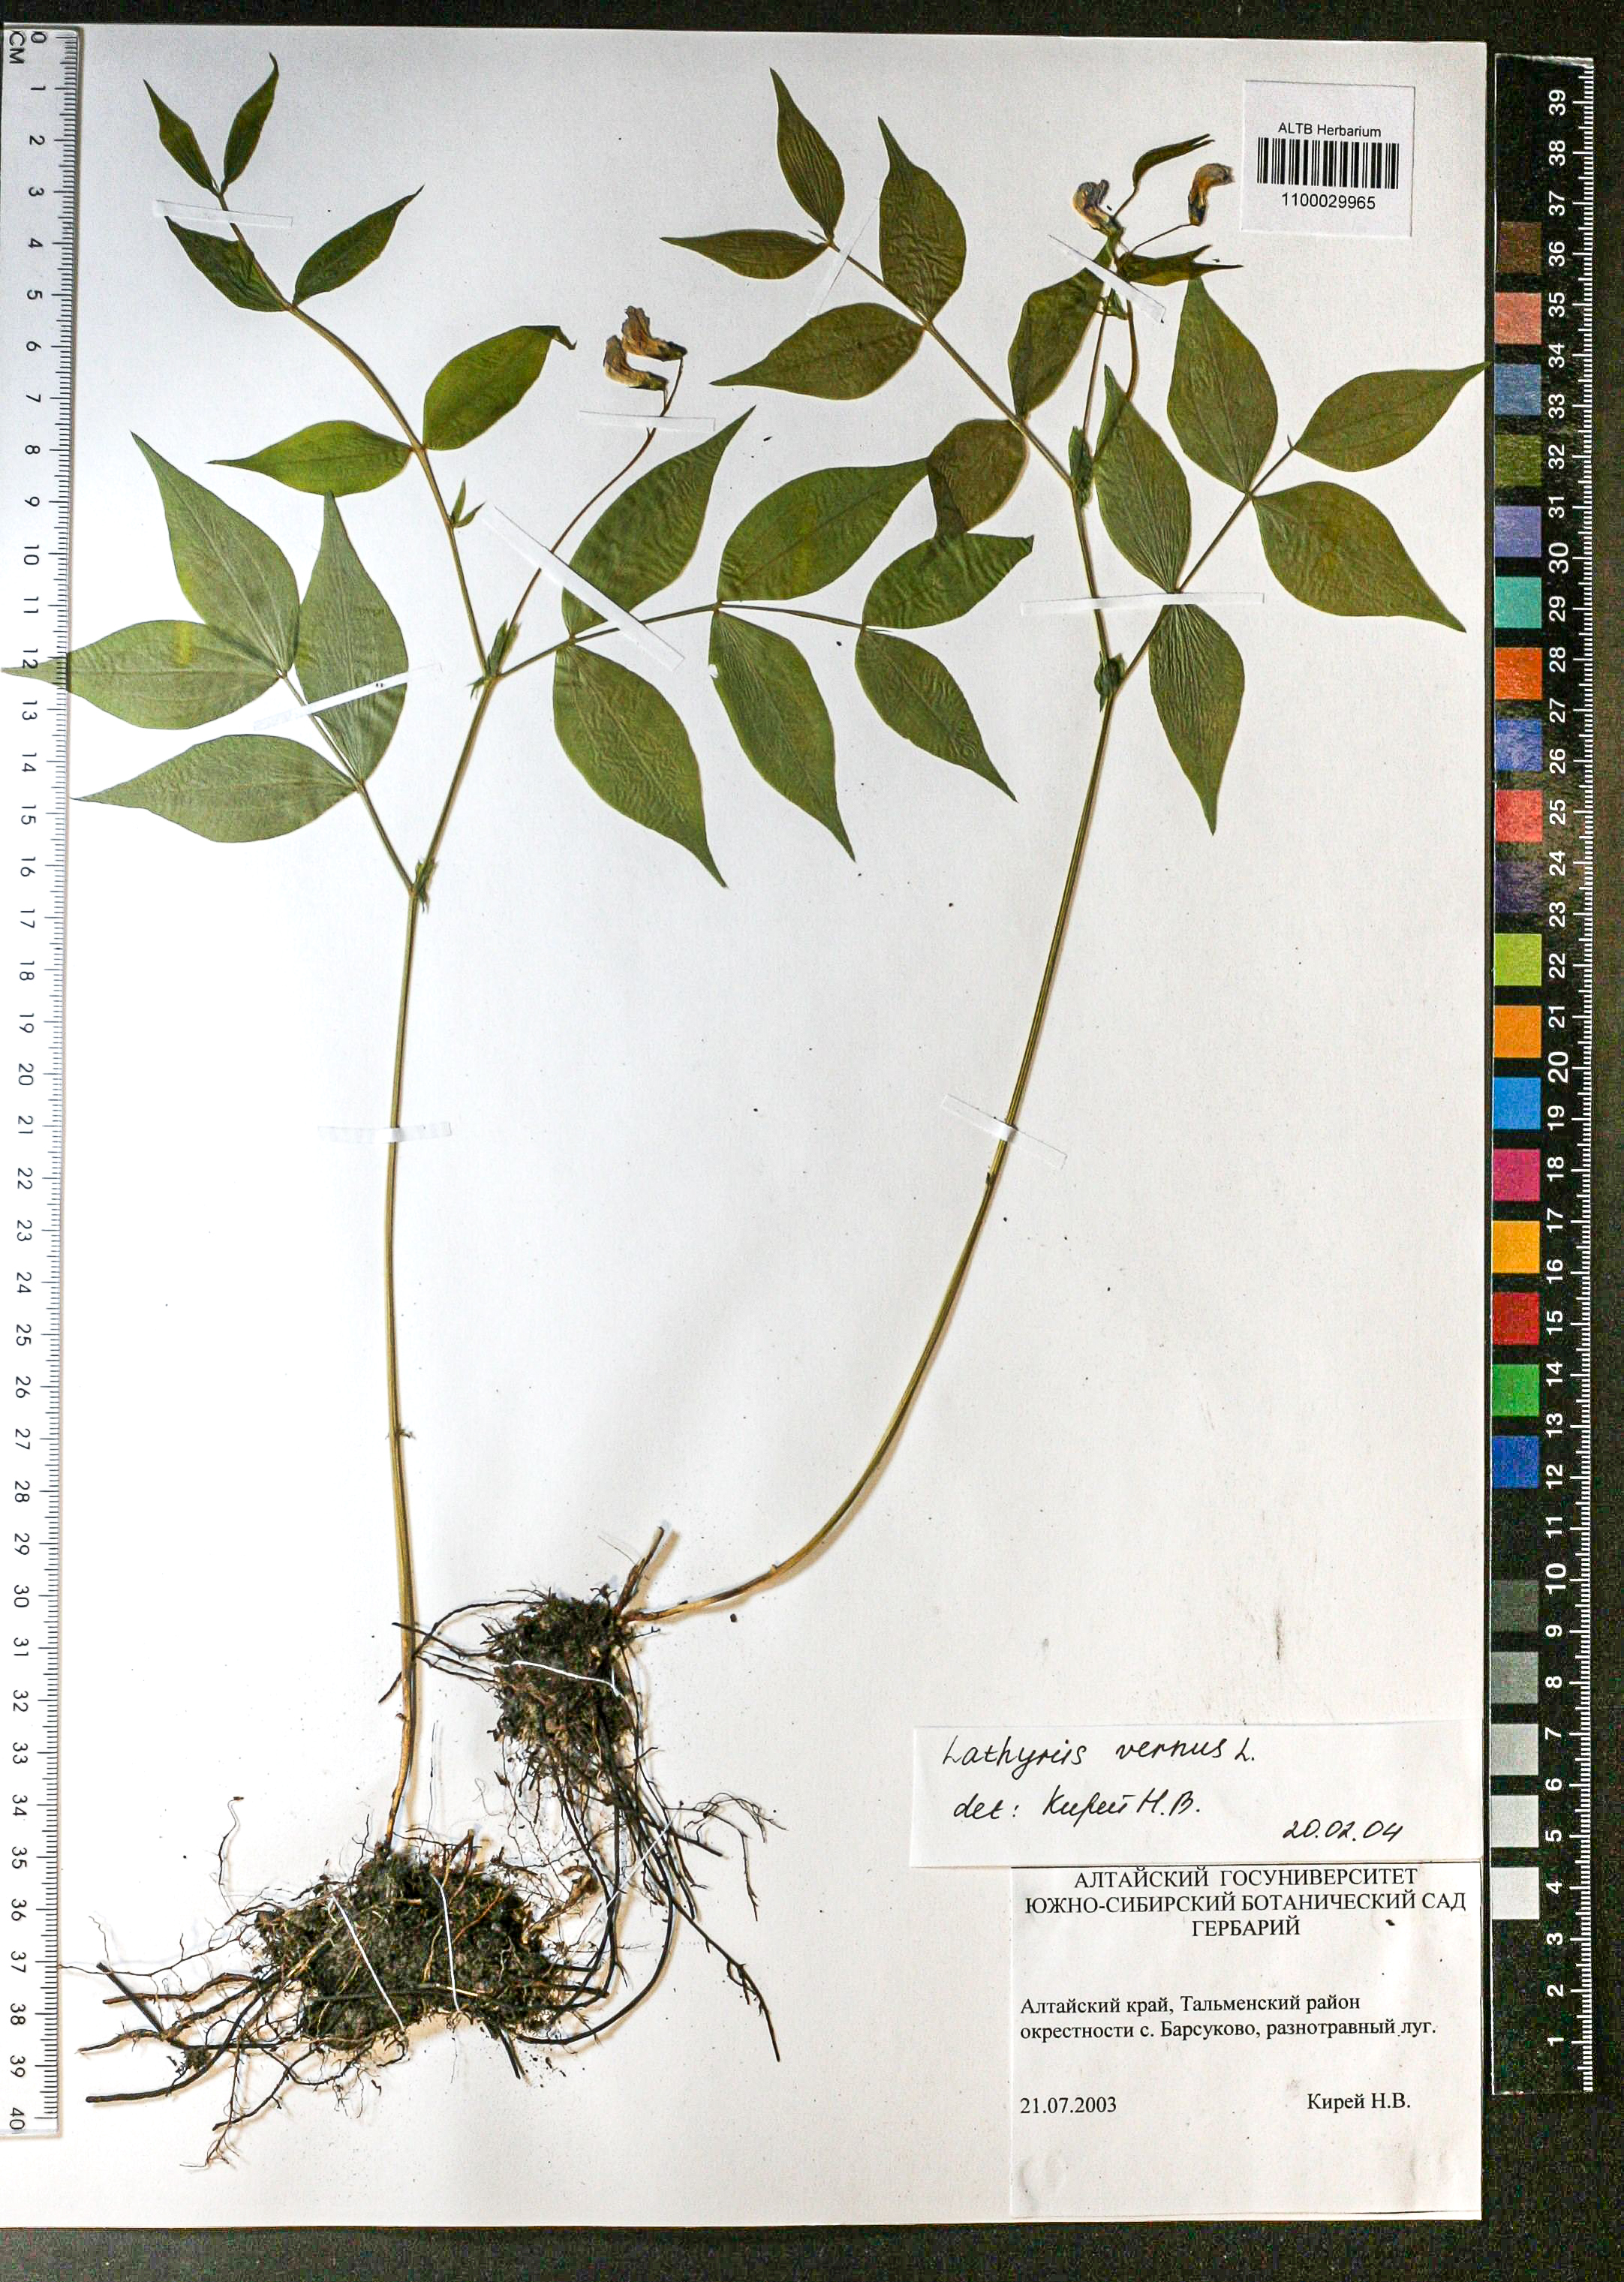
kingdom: Plantae
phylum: Tracheophyta
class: Magnoliopsida
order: Fabales
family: Fabaceae
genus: Trifolium
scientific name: Trifolium lupinaster
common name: Lupine clover
